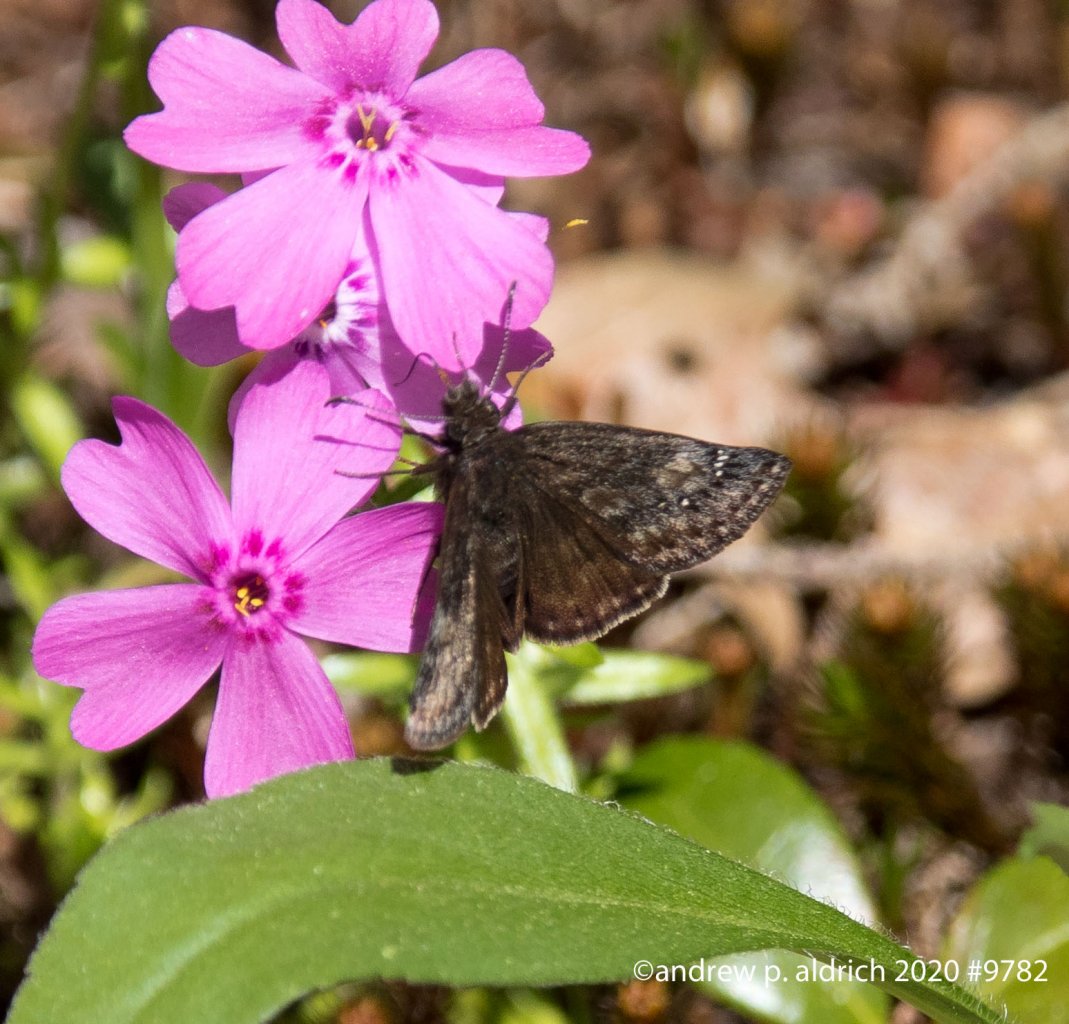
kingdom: Animalia
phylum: Arthropoda
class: Insecta
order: Lepidoptera
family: Hesperiidae
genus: Gesta
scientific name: Gesta
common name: Wild Indigo Duskywing
